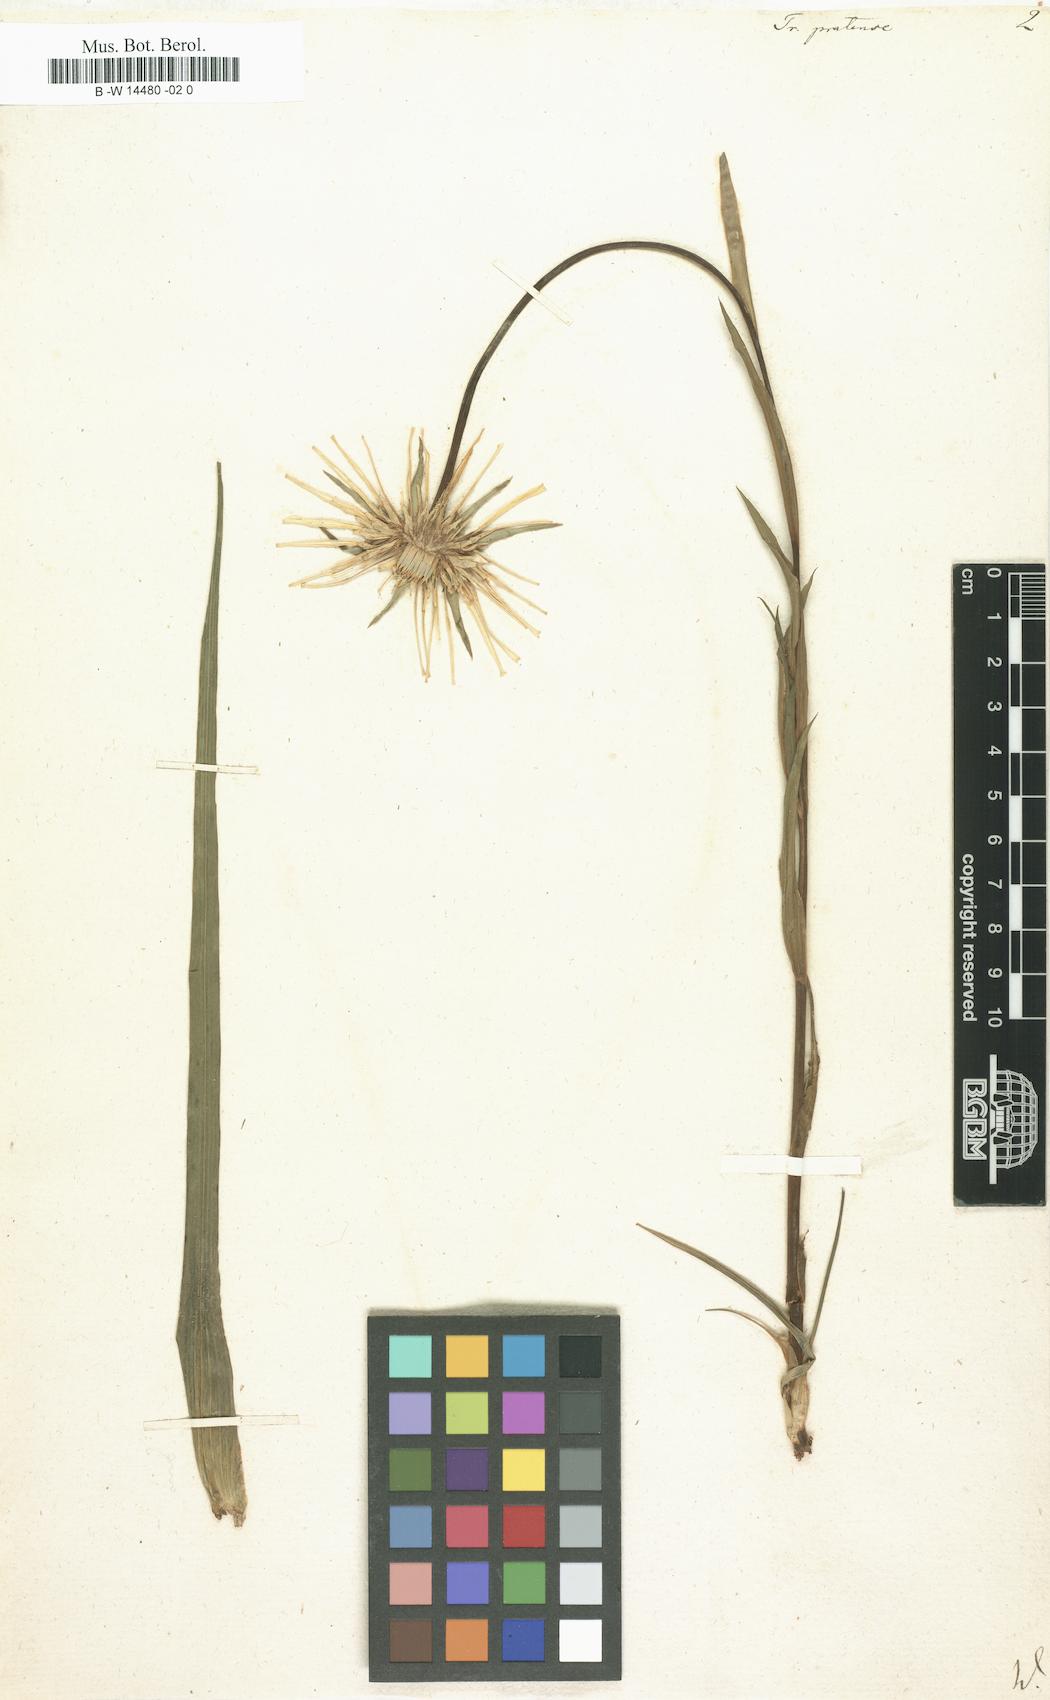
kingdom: Plantae
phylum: Tracheophyta
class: Magnoliopsida
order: Asterales
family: Asteraceae
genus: Tragopogon
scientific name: Tragopogon pratensis
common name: Goat's-beard
